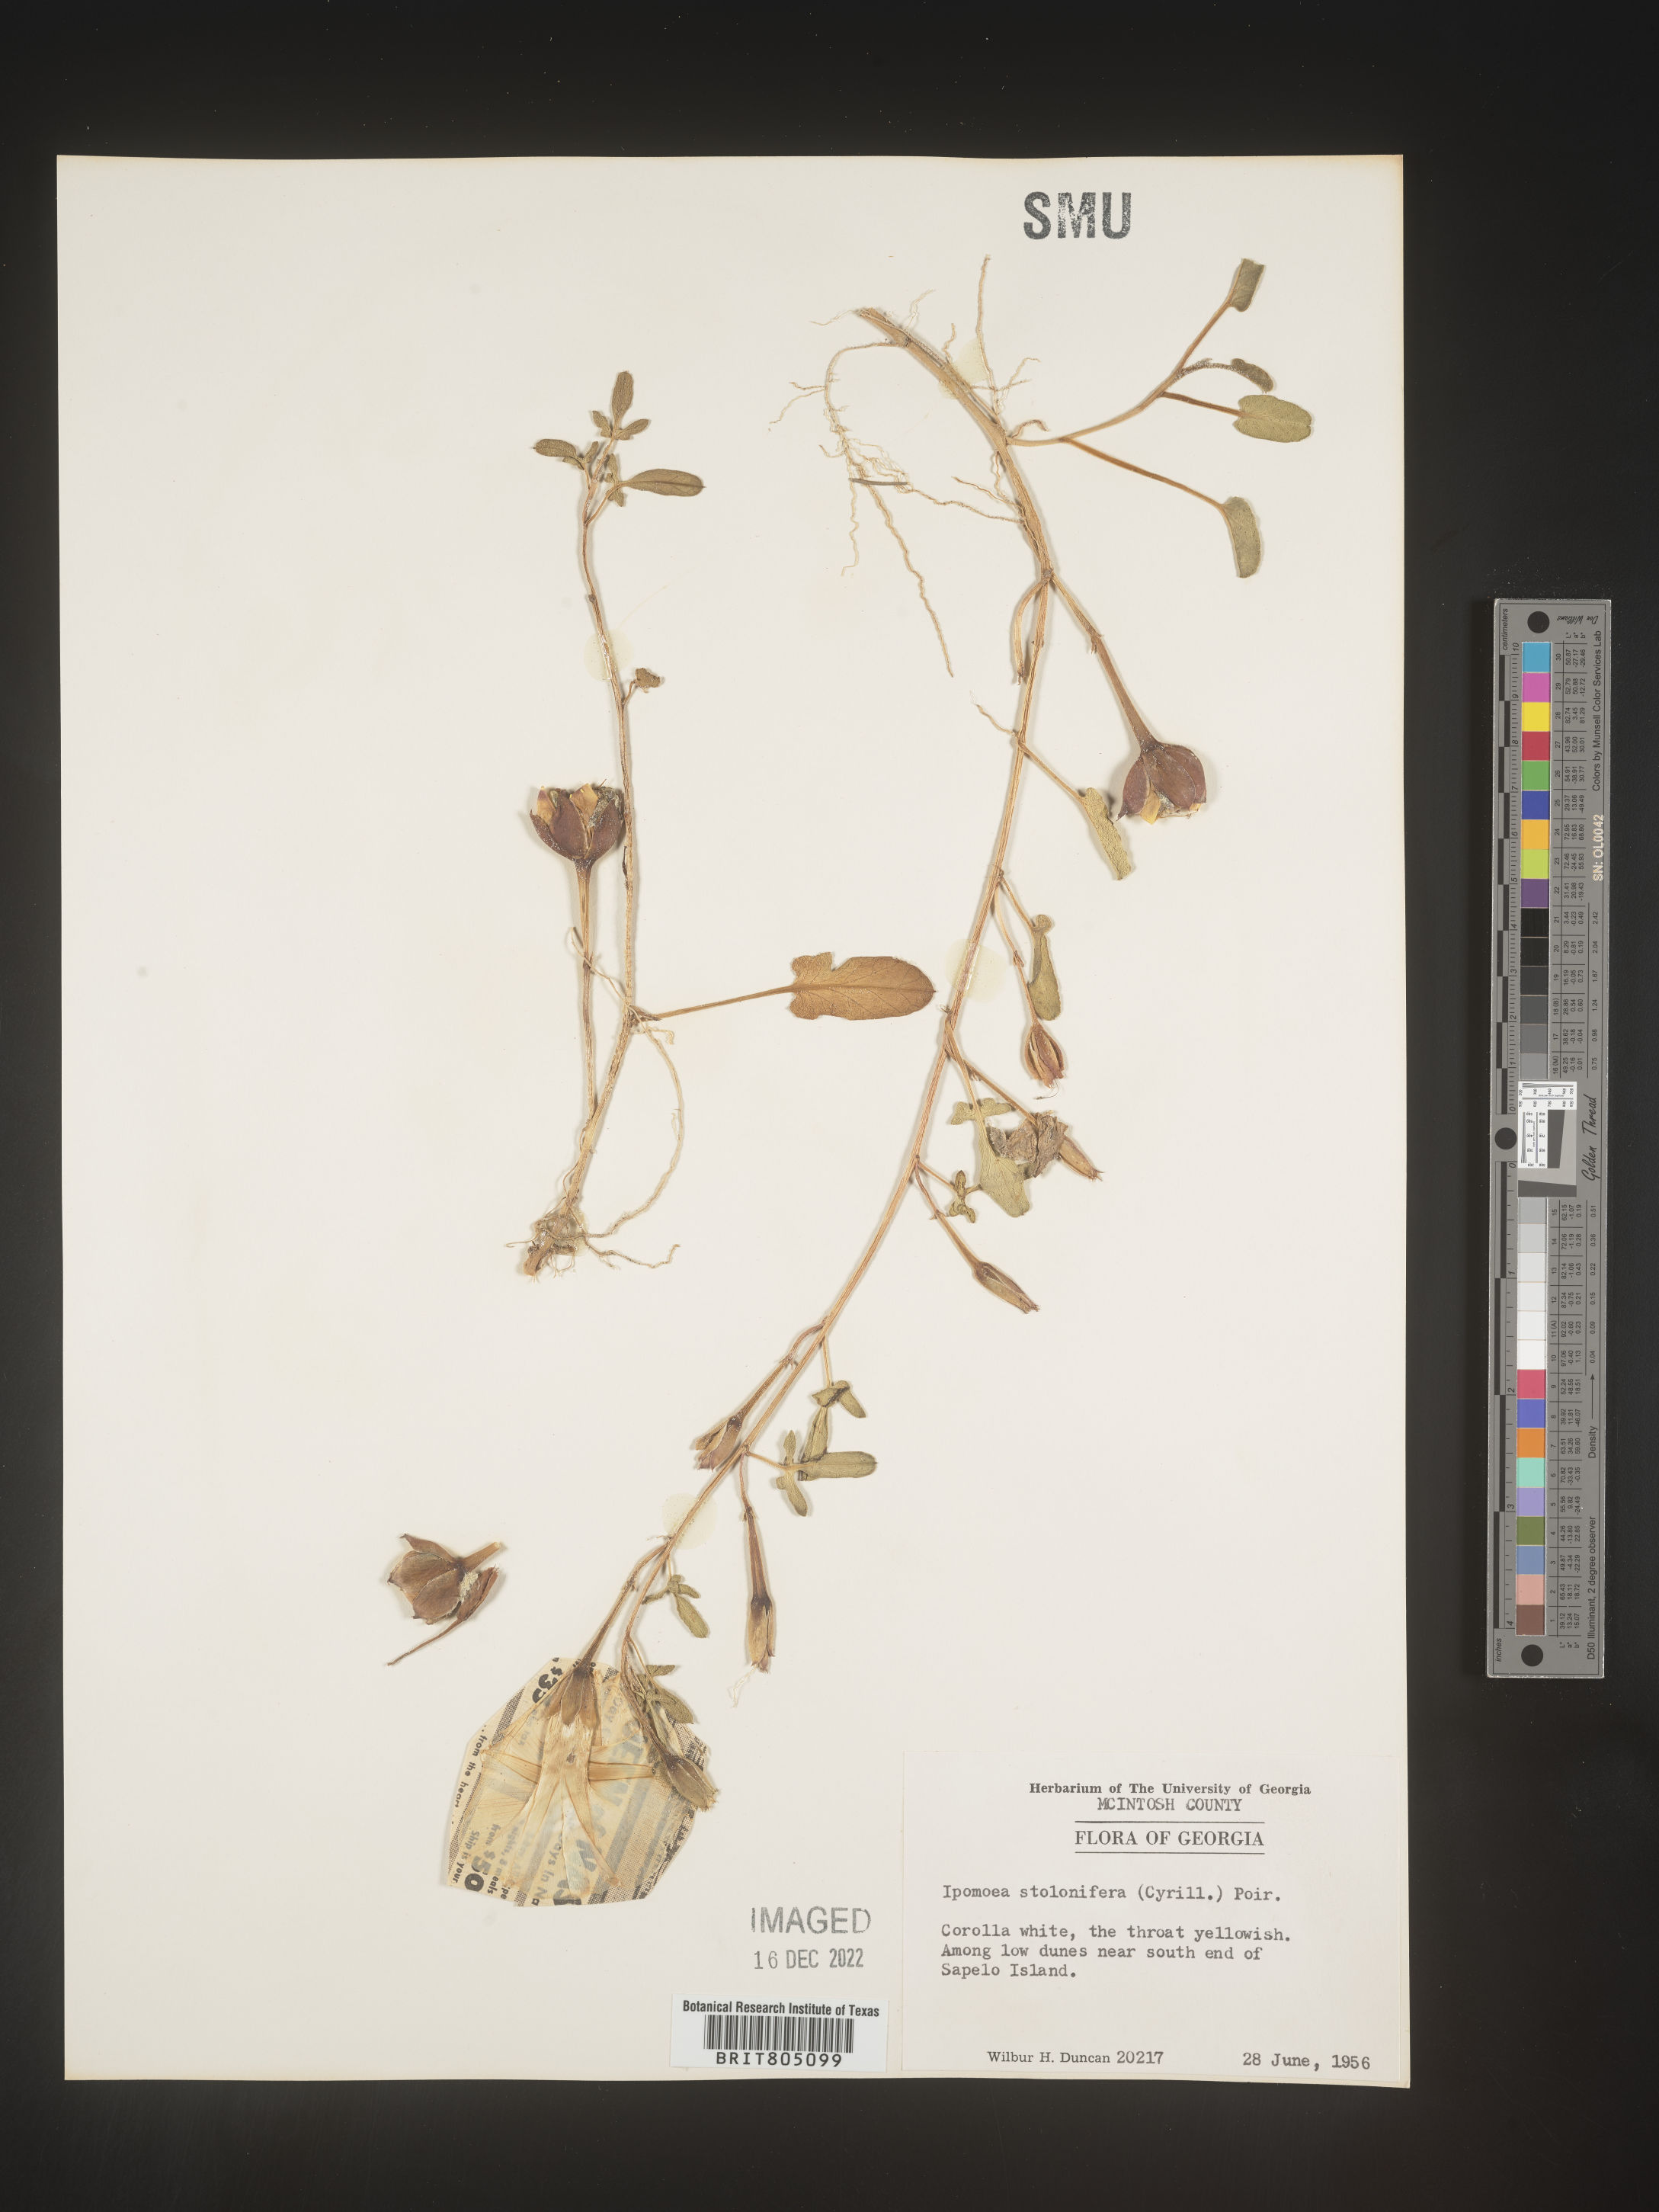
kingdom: Plantae
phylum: Tracheophyta
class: Magnoliopsida
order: Solanales
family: Convolvulaceae
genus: Ipomoea
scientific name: Ipomoea imperati
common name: Fiddle-leaf morning-glory
